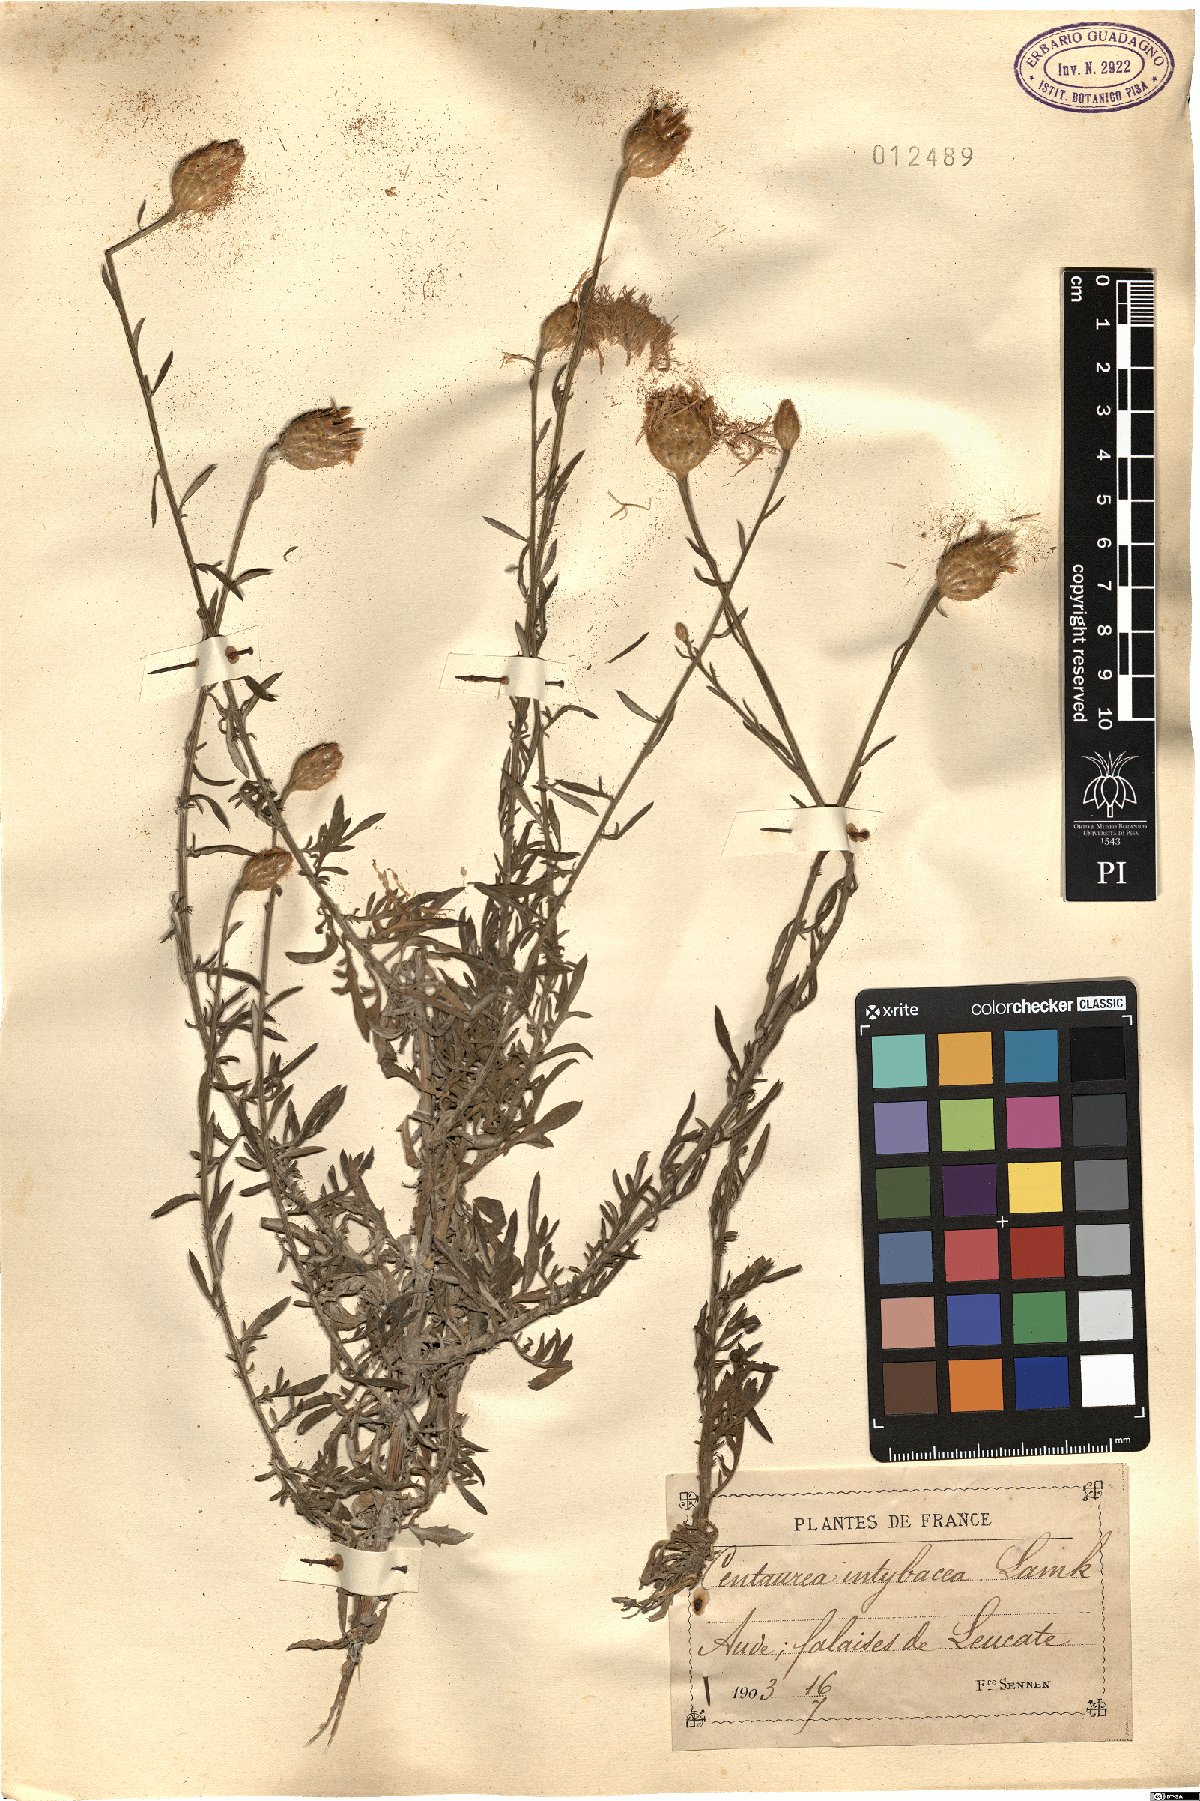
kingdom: Plantae
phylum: Tracheophyta
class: Magnoliopsida
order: Asterales
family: Asteraceae
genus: Cheirolophus
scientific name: Cheirolophus intybaceus
